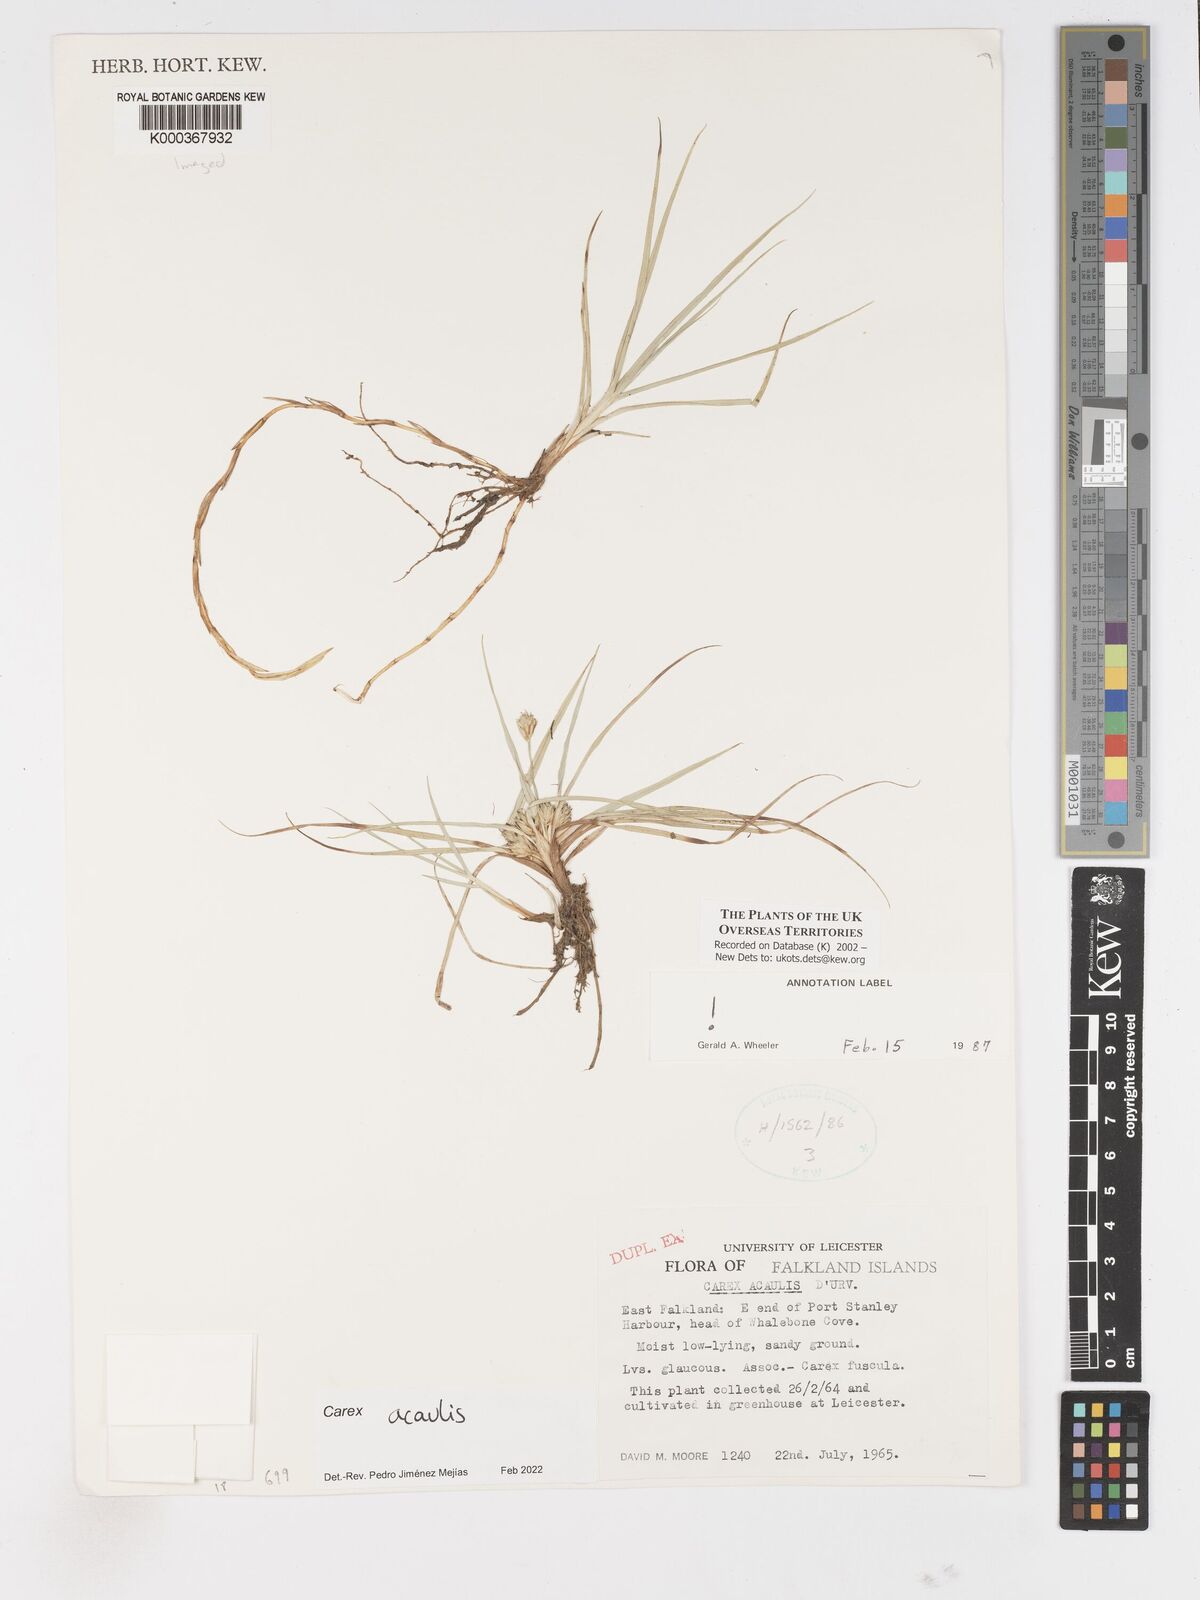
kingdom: Plantae
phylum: Tracheophyta
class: Liliopsida
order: Poales
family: Cyperaceae
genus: Carex
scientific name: Carex acaulis
